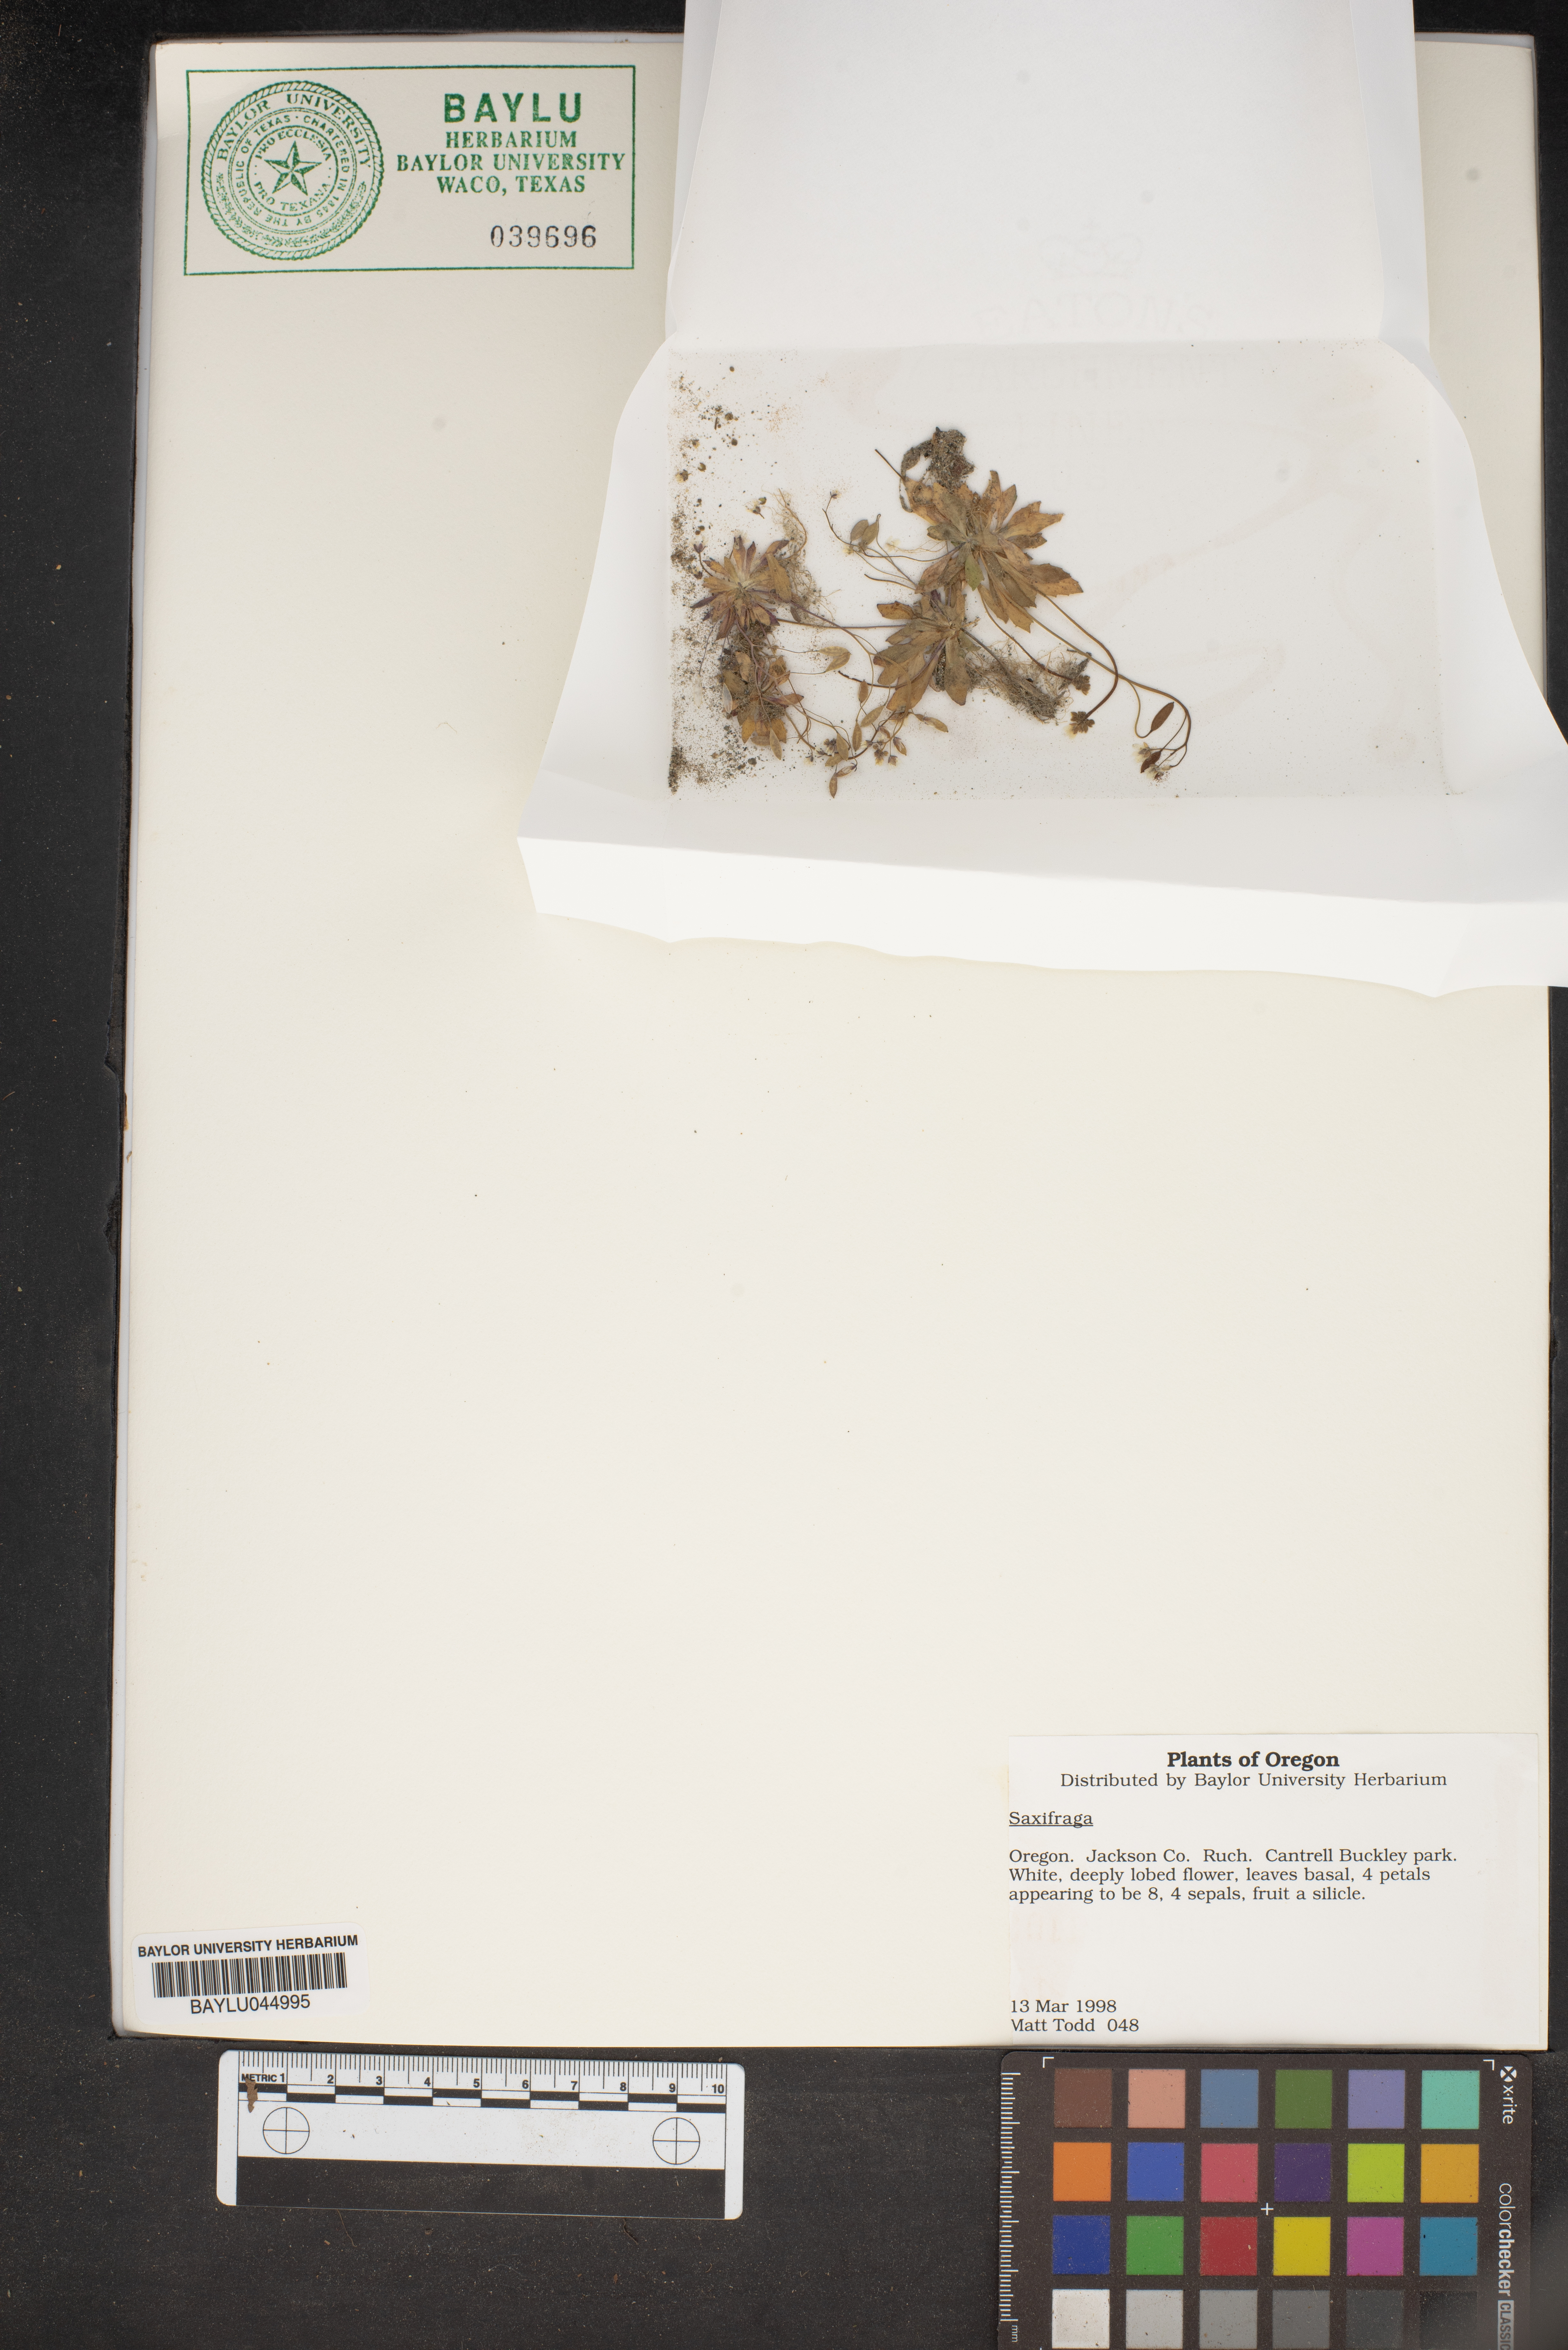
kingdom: Plantae
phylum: Tracheophyta
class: Magnoliopsida
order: Saxifragales
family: Saxifragaceae
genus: Saxifraga
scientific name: Saxifraga
